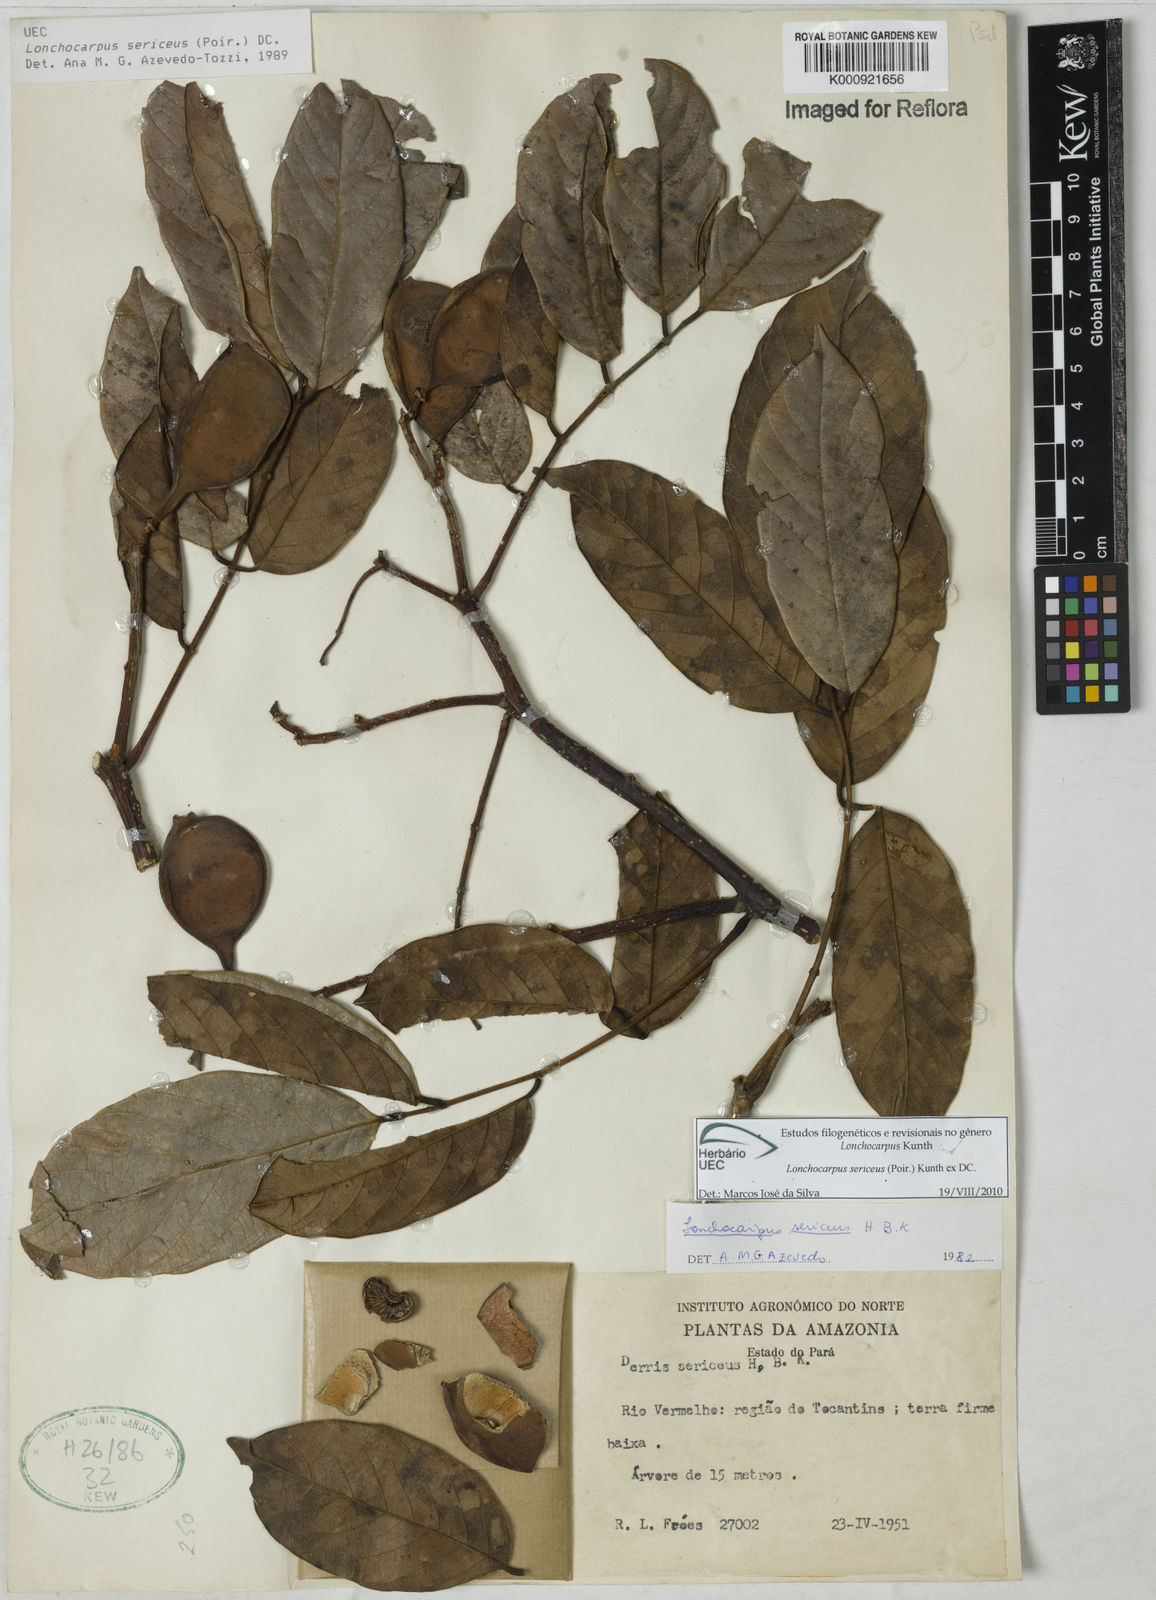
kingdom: Plantae
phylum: Tracheophyta
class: Magnoliopsida
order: Fabales
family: Fabaceae
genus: Lonchocarpus
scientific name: Lonchocarpus sericeus
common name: Savonette
